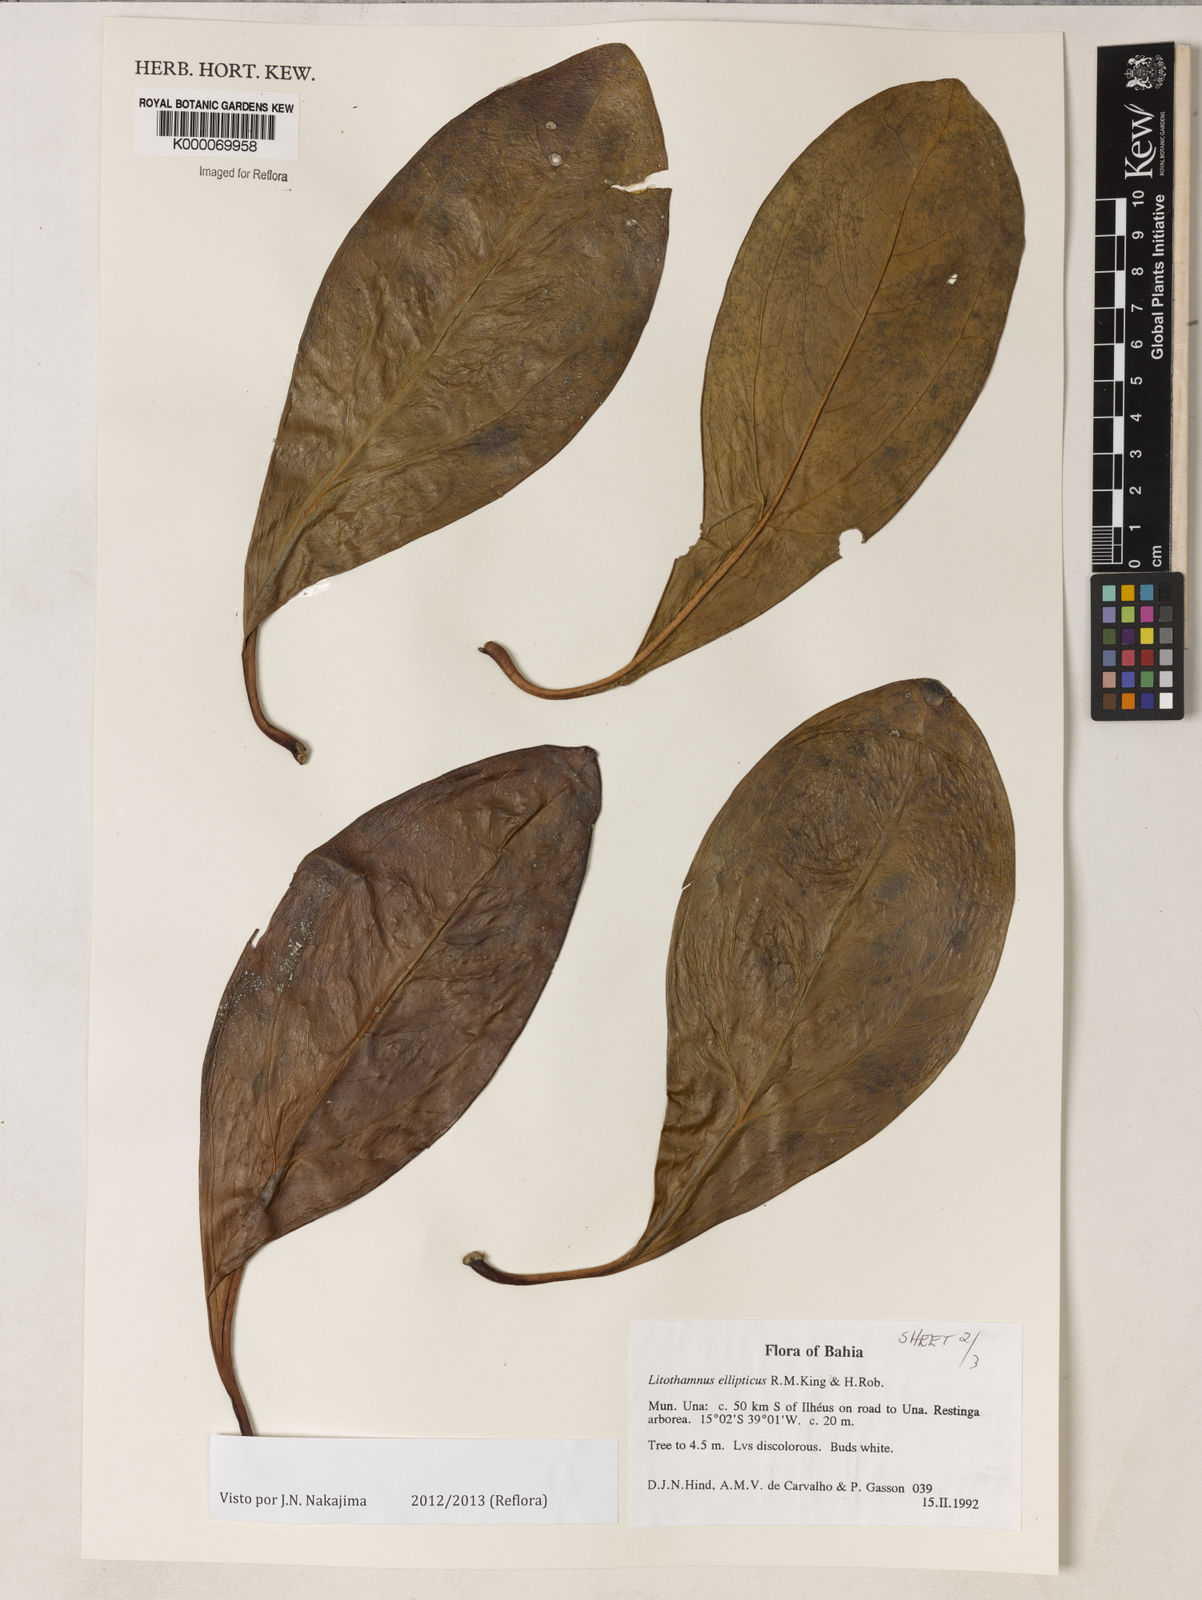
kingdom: Plantae
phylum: Tracheophyta
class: Magnoliopsida
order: Asterales
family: Asteraceae
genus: Litothamnus
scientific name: Litothamnus ellipticus
